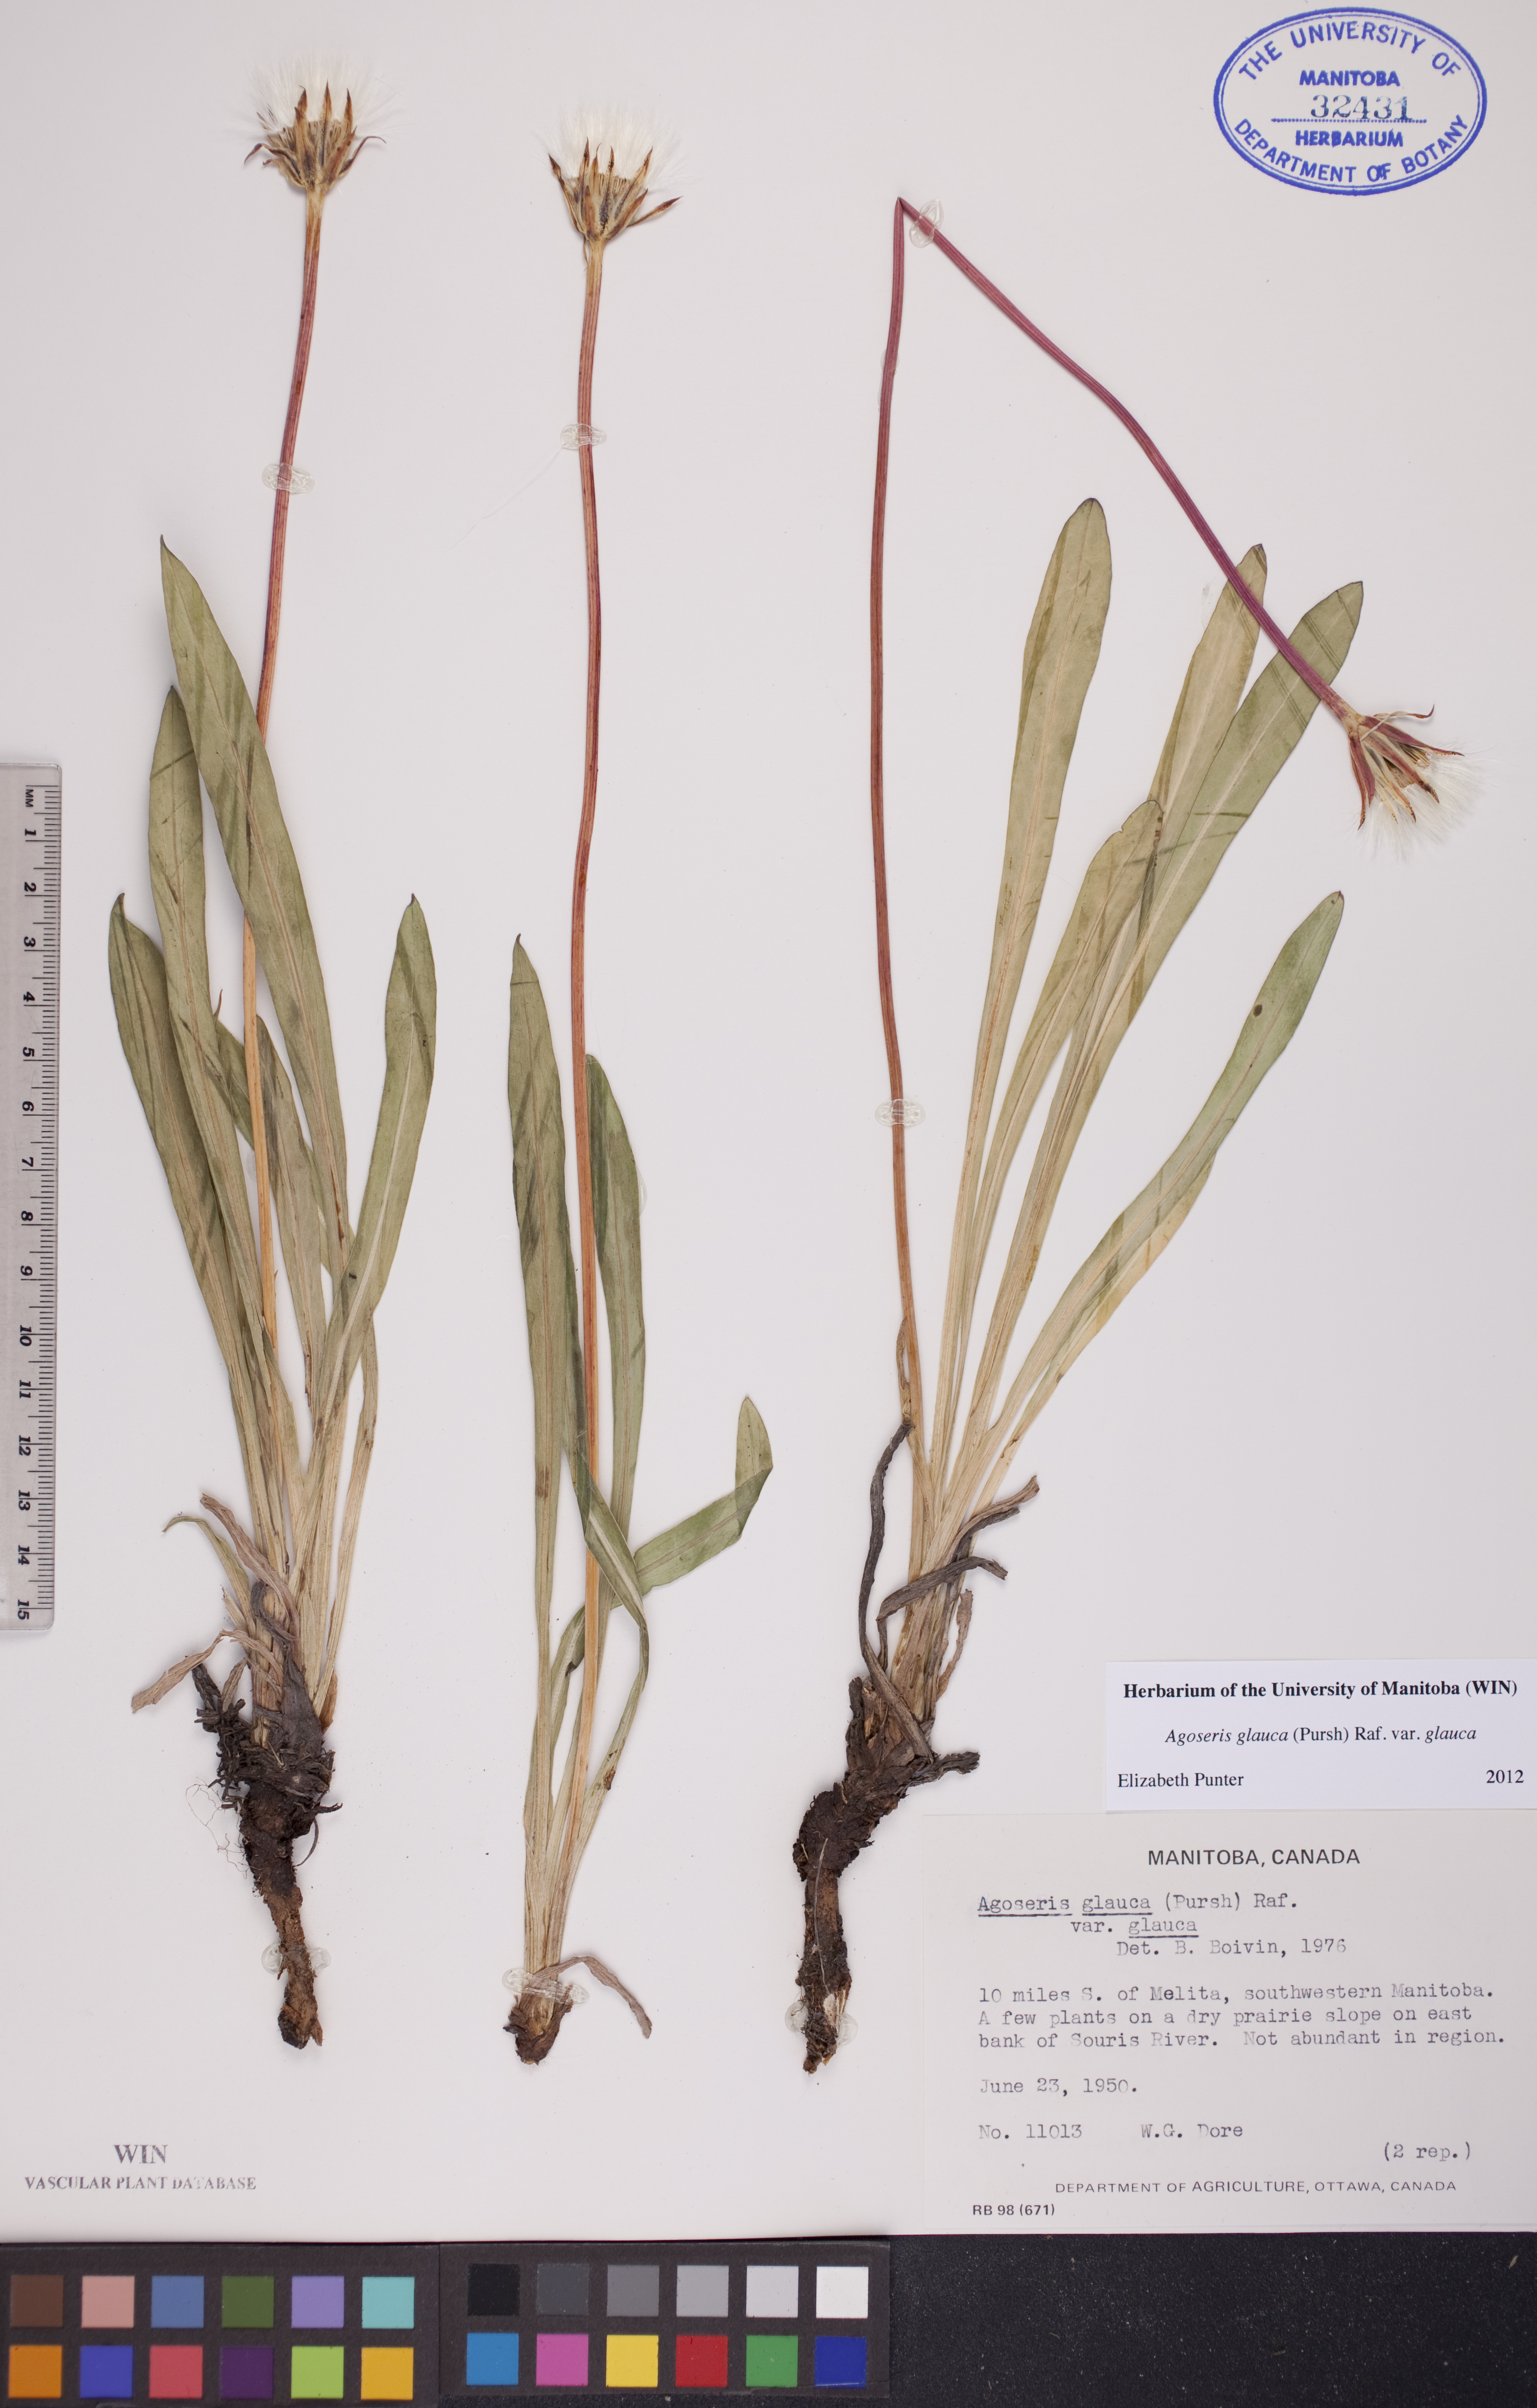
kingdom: Plantae
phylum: Tracheophyta
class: Magnoliopsida
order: Asterales
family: Asteraceae
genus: Agoseris
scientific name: Agoseris glauca
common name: Prairie agoseris
